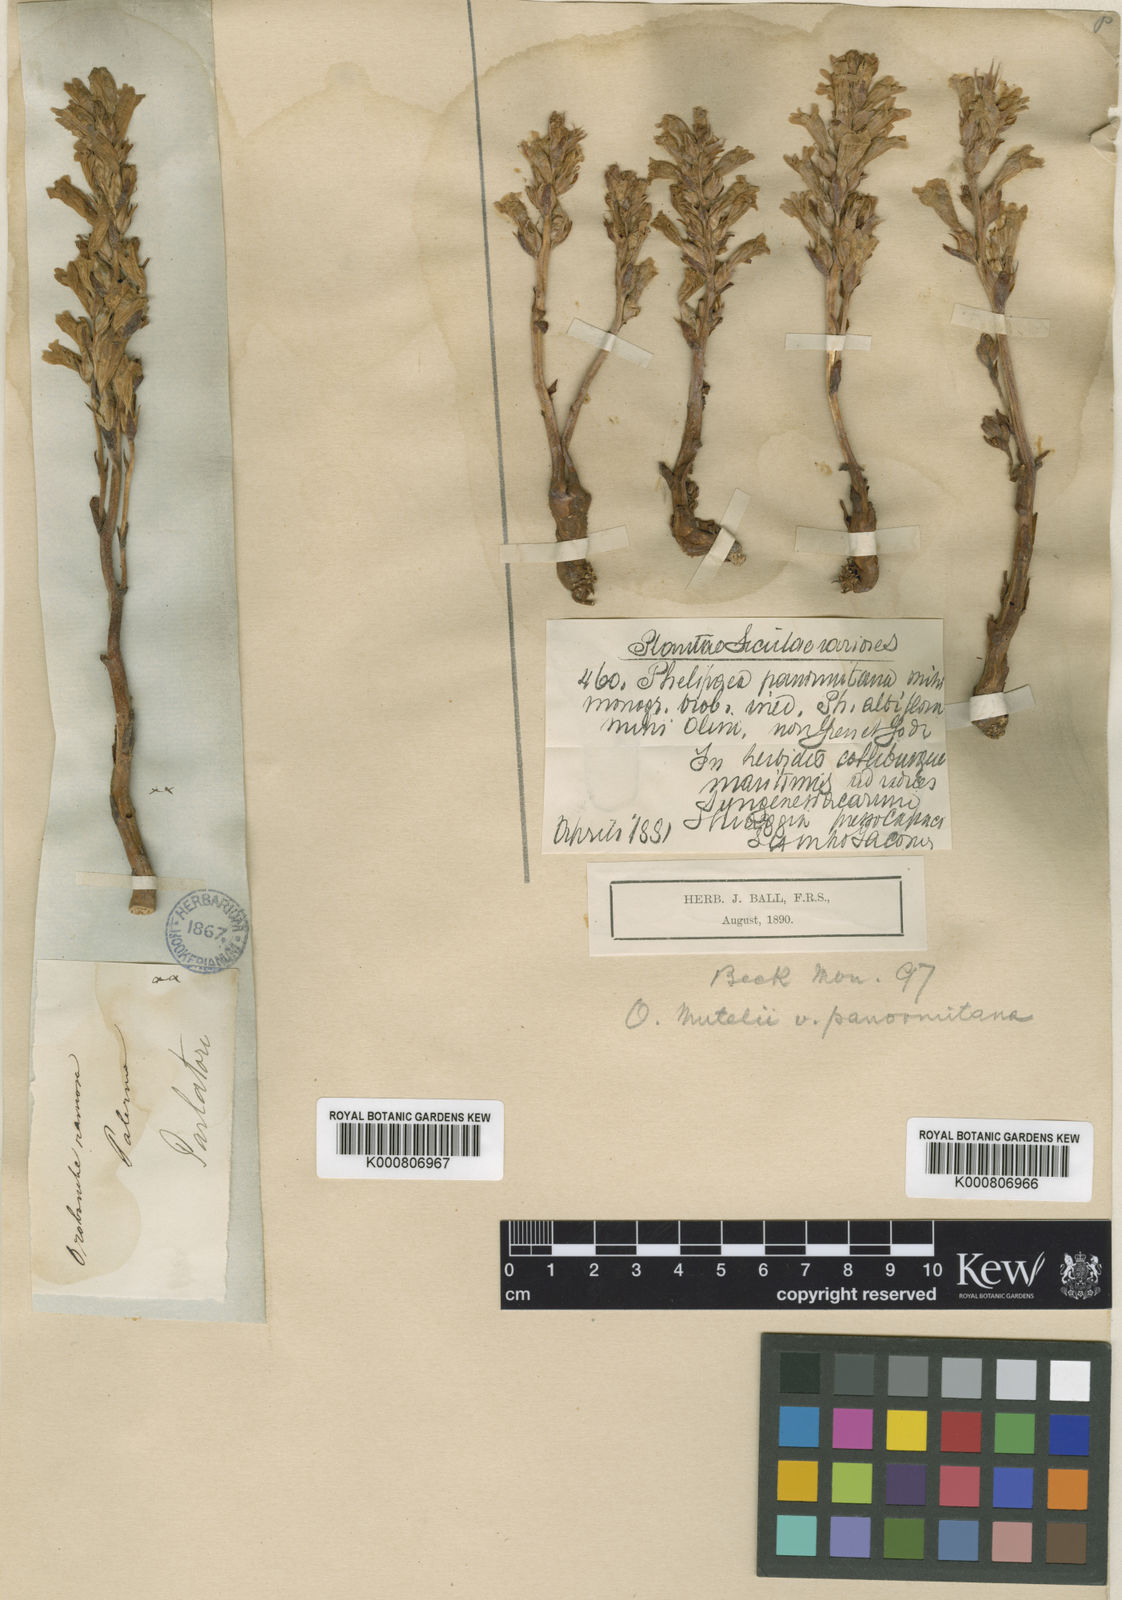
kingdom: Plantae
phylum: Tracheophyta
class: Magnoliopsida
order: Lamiales
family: Orobanchaceae
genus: Phelipanche
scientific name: Phelipanche mutelii
